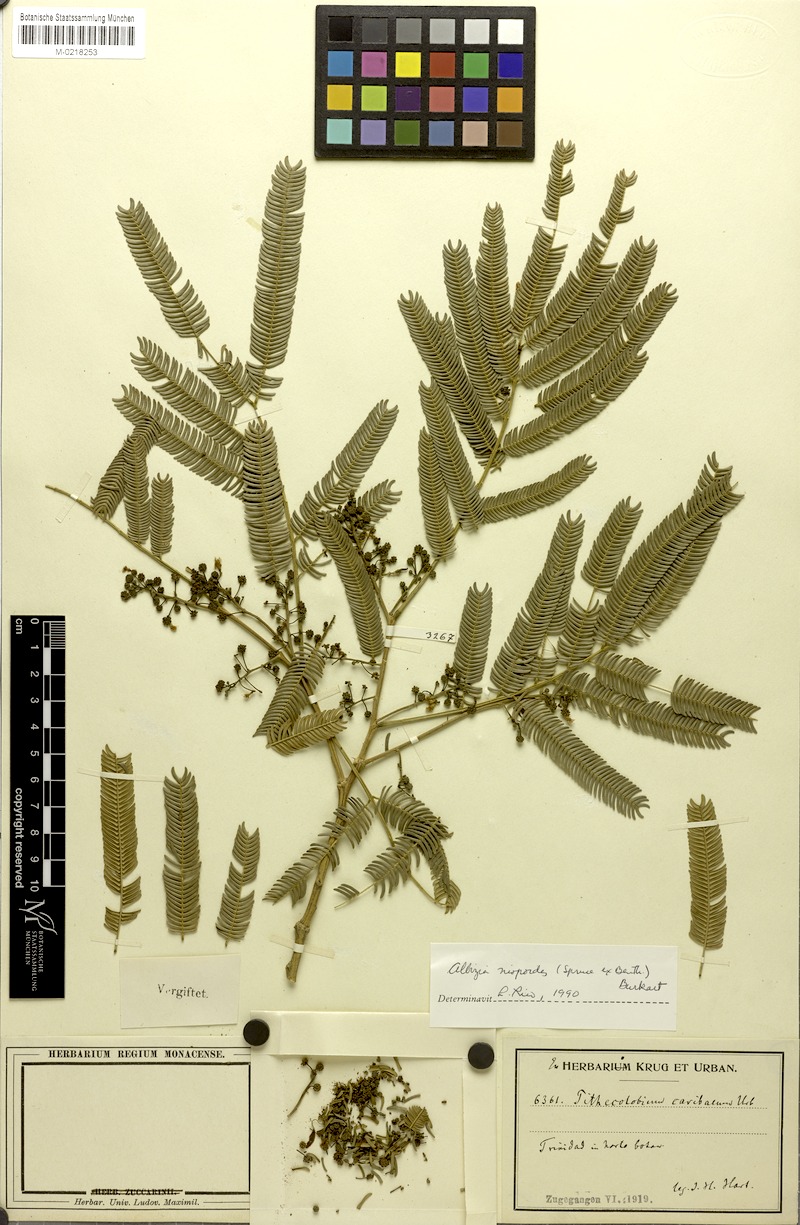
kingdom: Plantae
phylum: Tracheophyta
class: Magnoliopsida
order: Fabales
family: Fabaceae
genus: Albizia
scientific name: Albizia niopoides
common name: Silk tree
